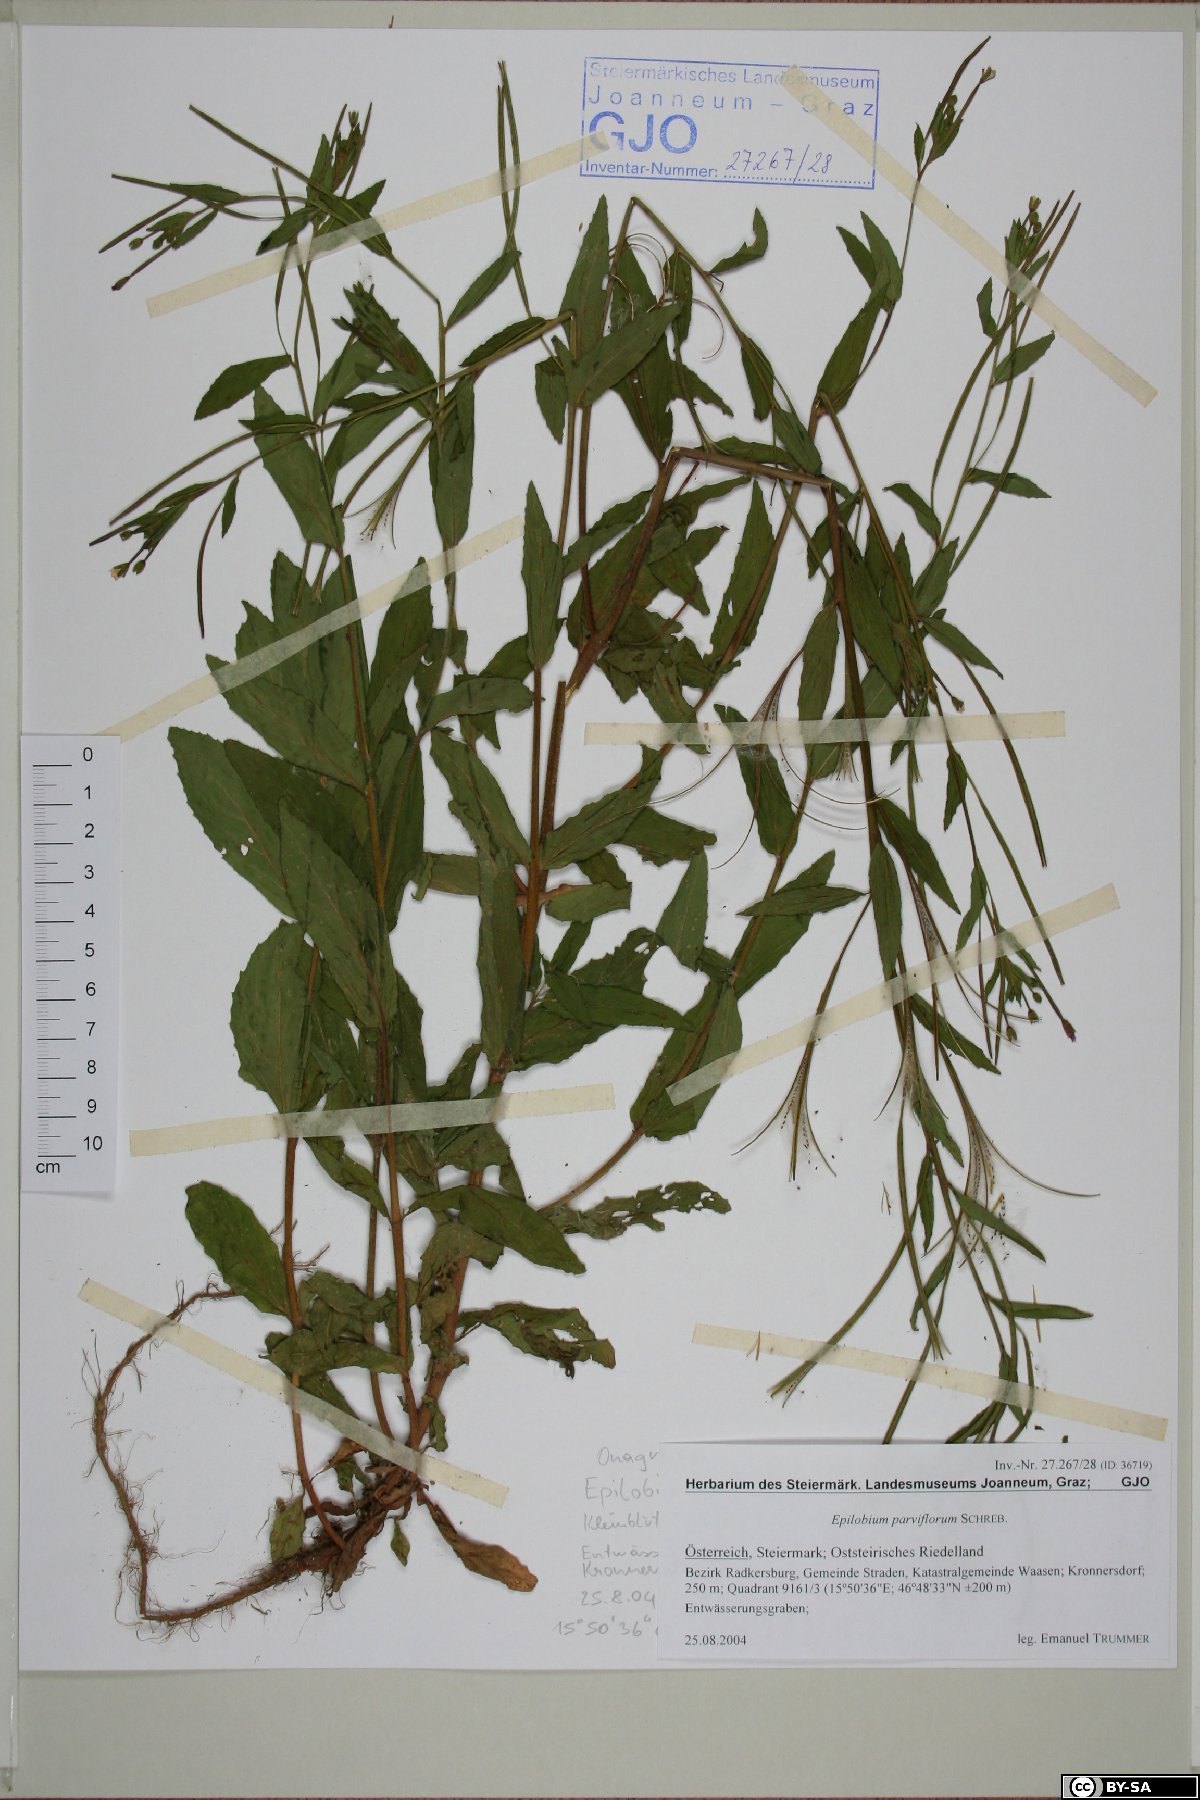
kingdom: Plantae
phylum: Tracheophyta
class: Magnoliopsida
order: Myrtales
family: Onagraceae
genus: Epilobium
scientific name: Epilobium parviflorum
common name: Hoary willowherb
